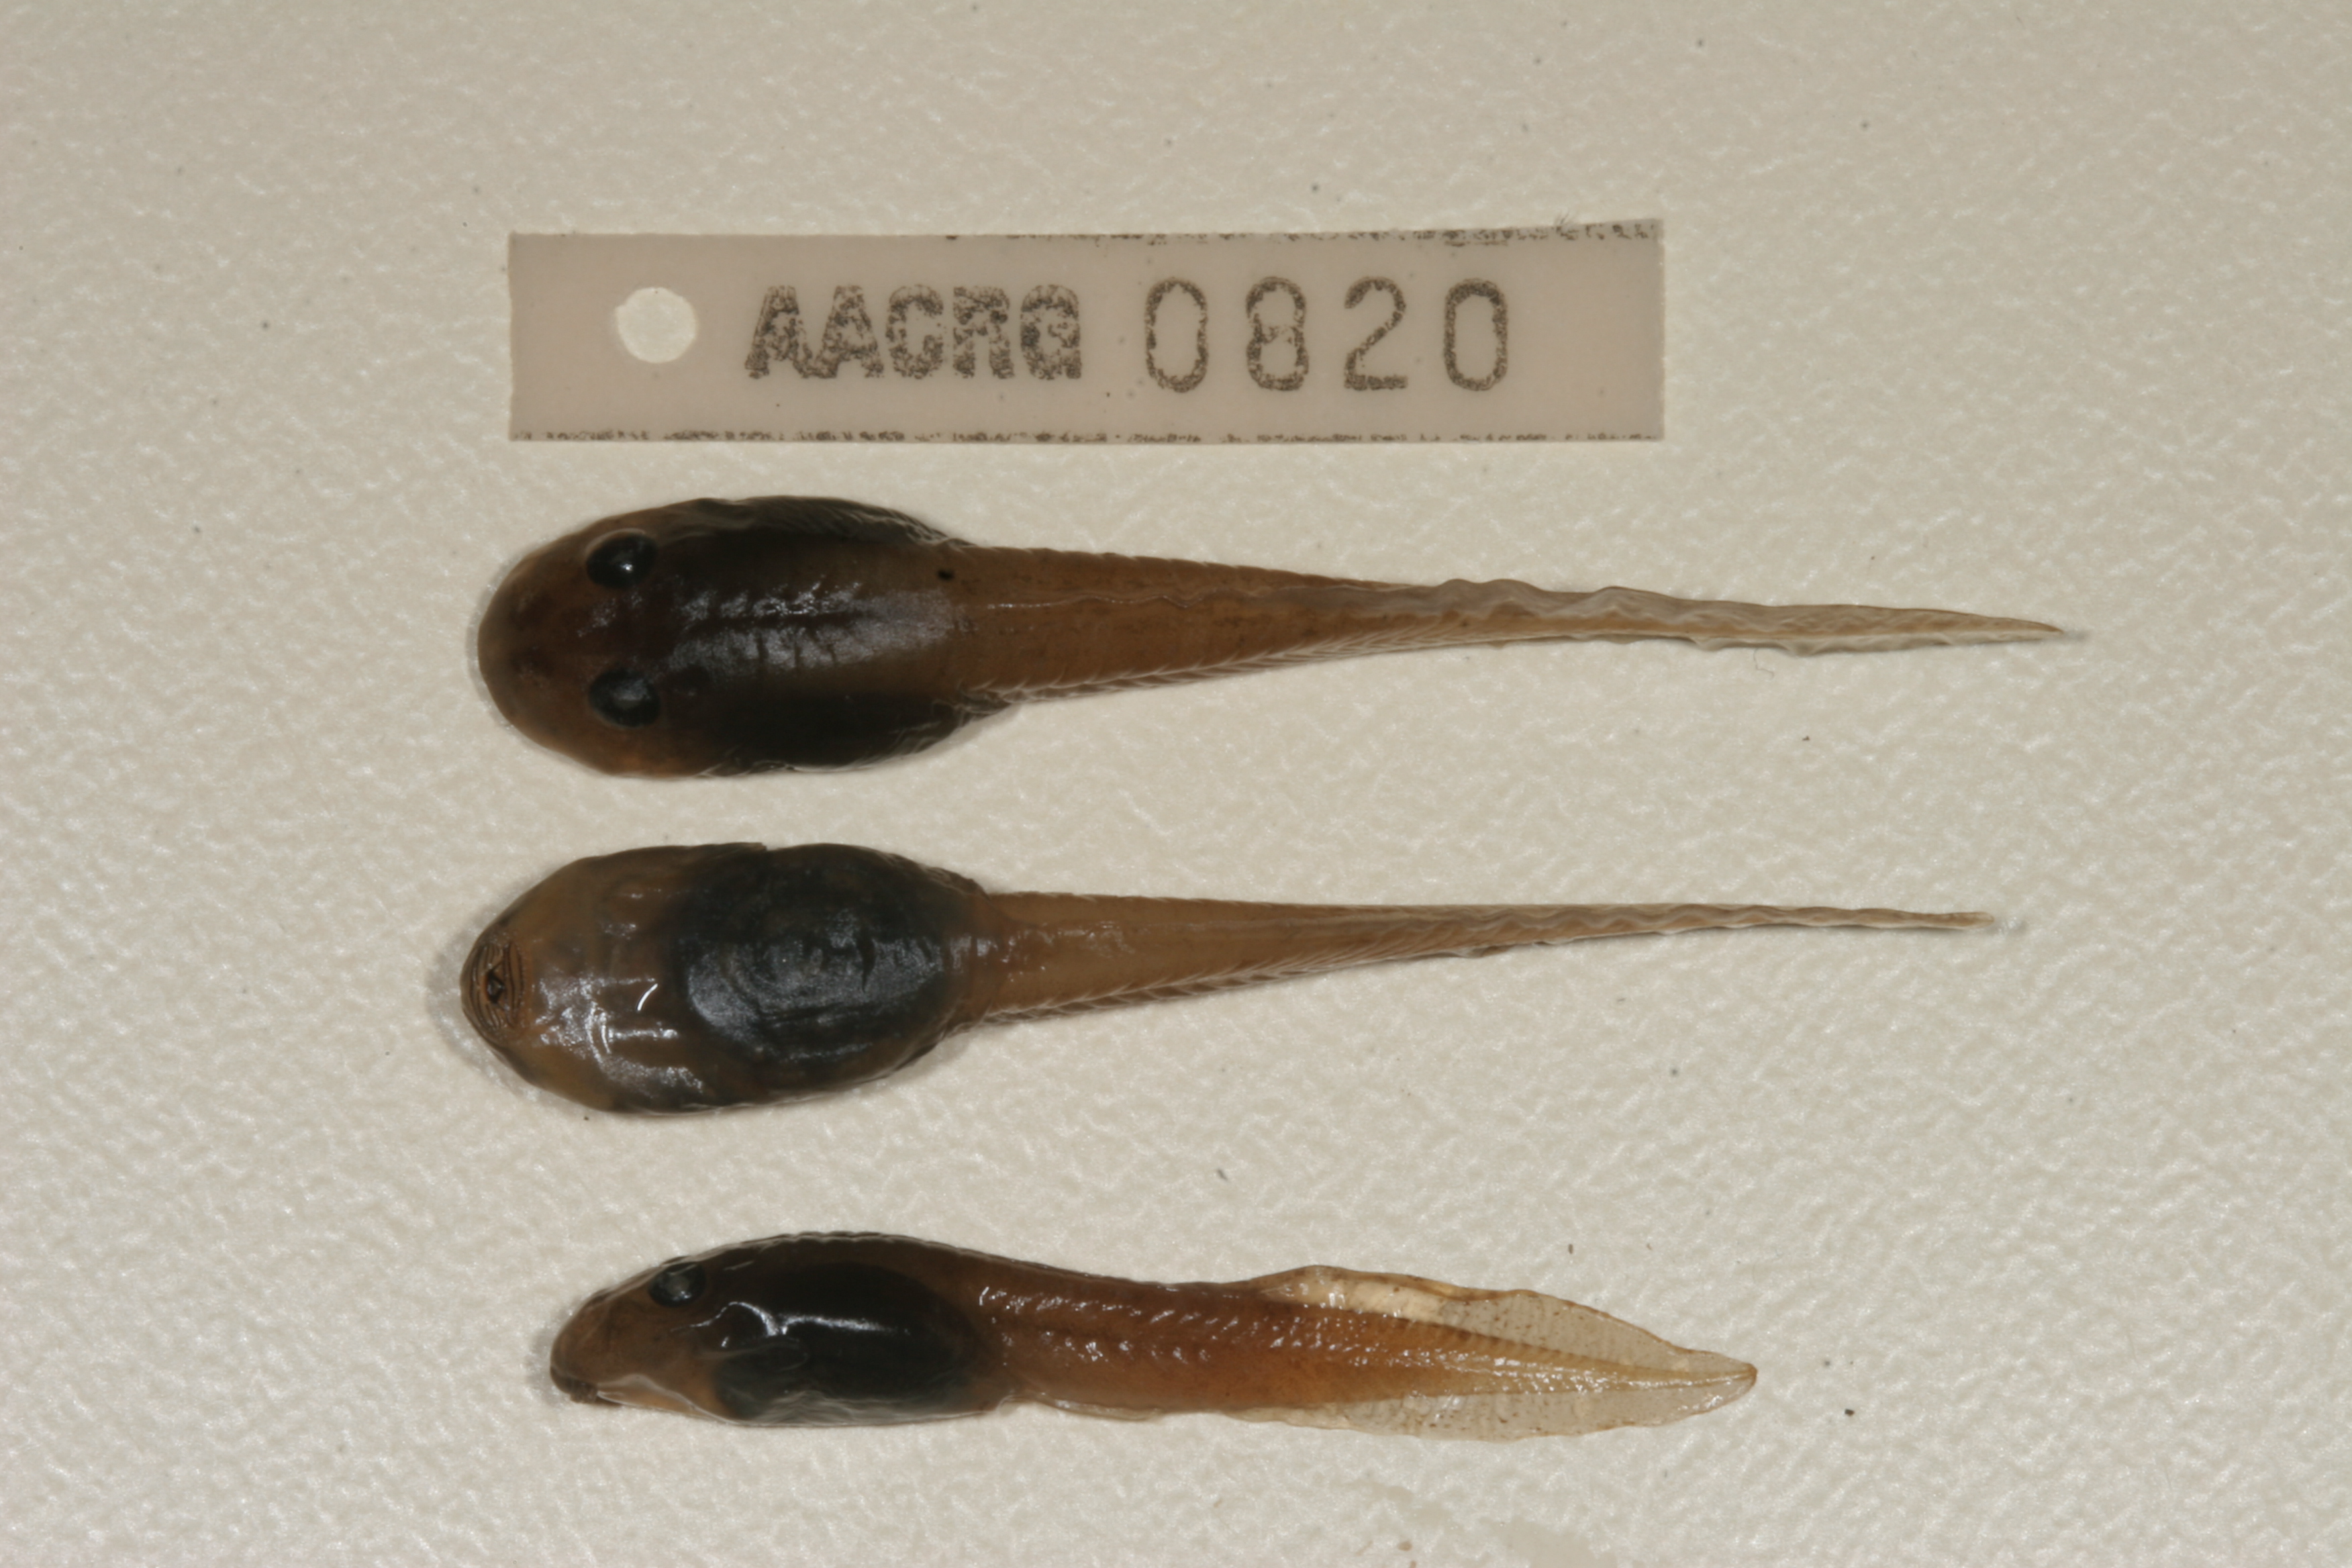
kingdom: Animalia
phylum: Chordata
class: Amphibia
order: Anura
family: Pyxicephalidae
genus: Amietia
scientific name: Amietia fuscigula
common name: Cape rana
